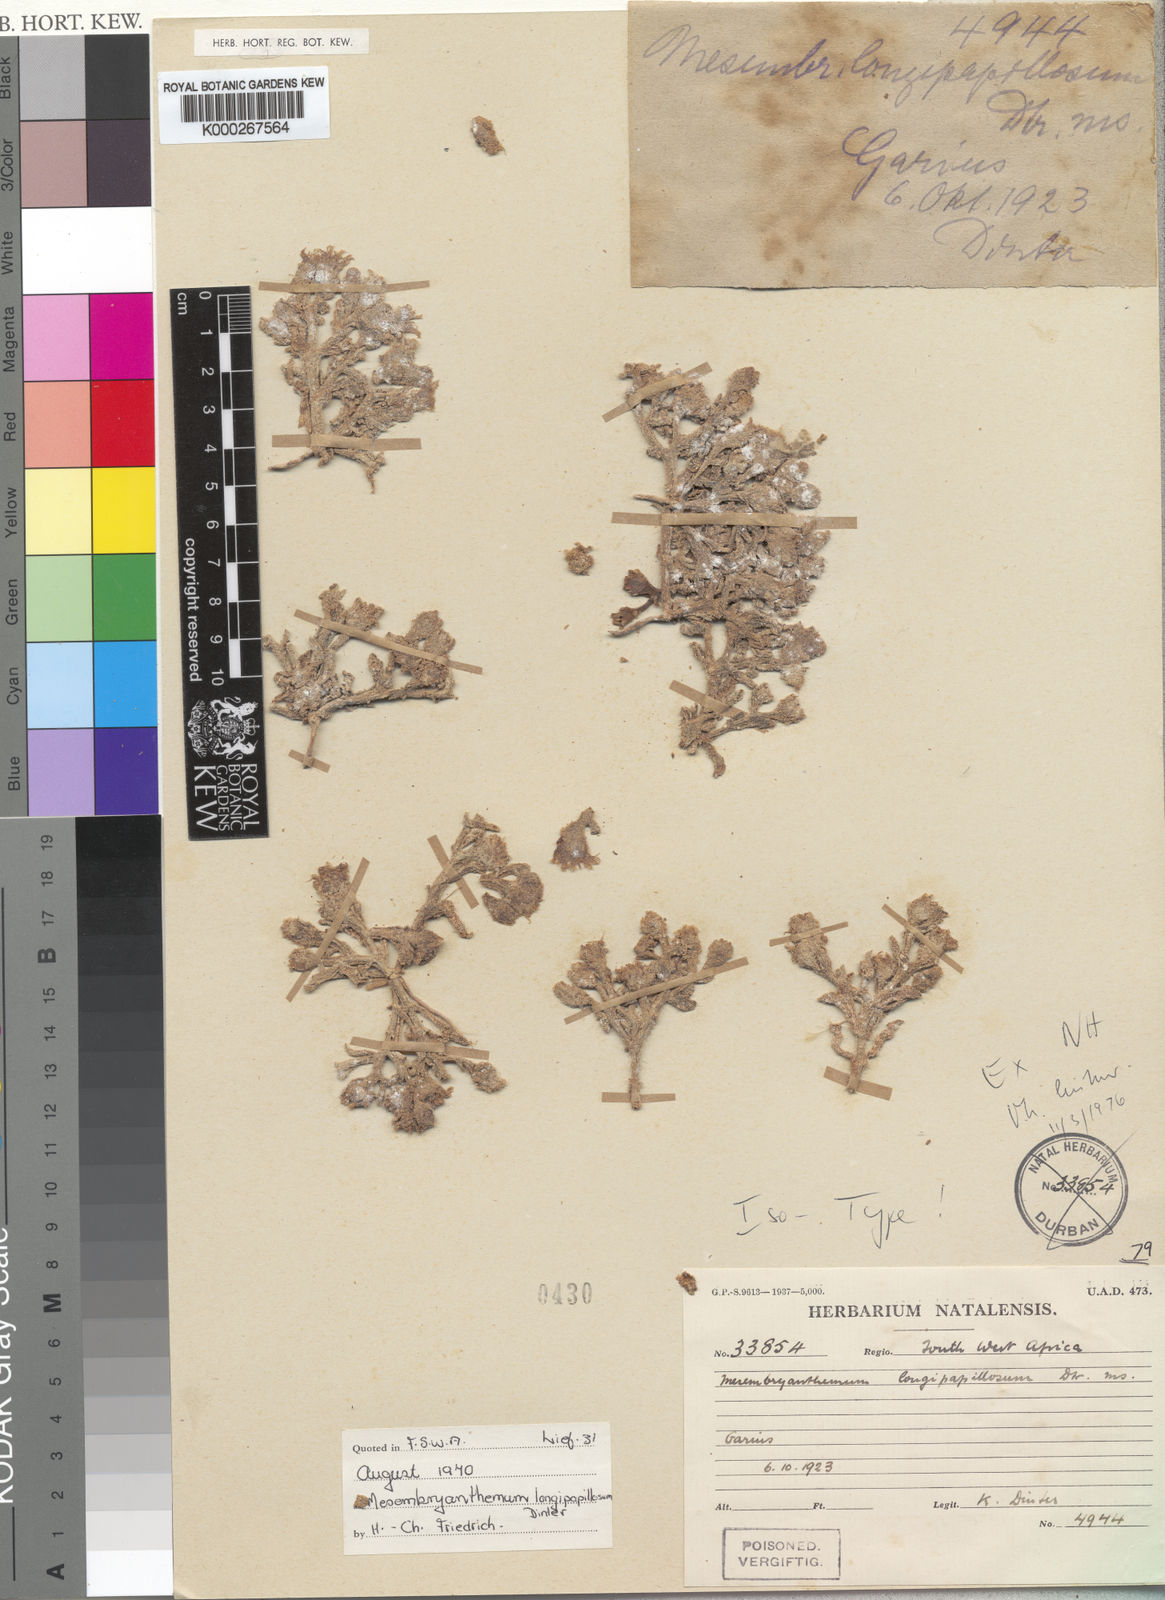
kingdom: Plantae
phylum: Tracheophyta
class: Magnoliopsida
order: Caryophyllales
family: Aizoaceae
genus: Mesembryanthemum
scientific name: Mesembryanthemum inachabense
